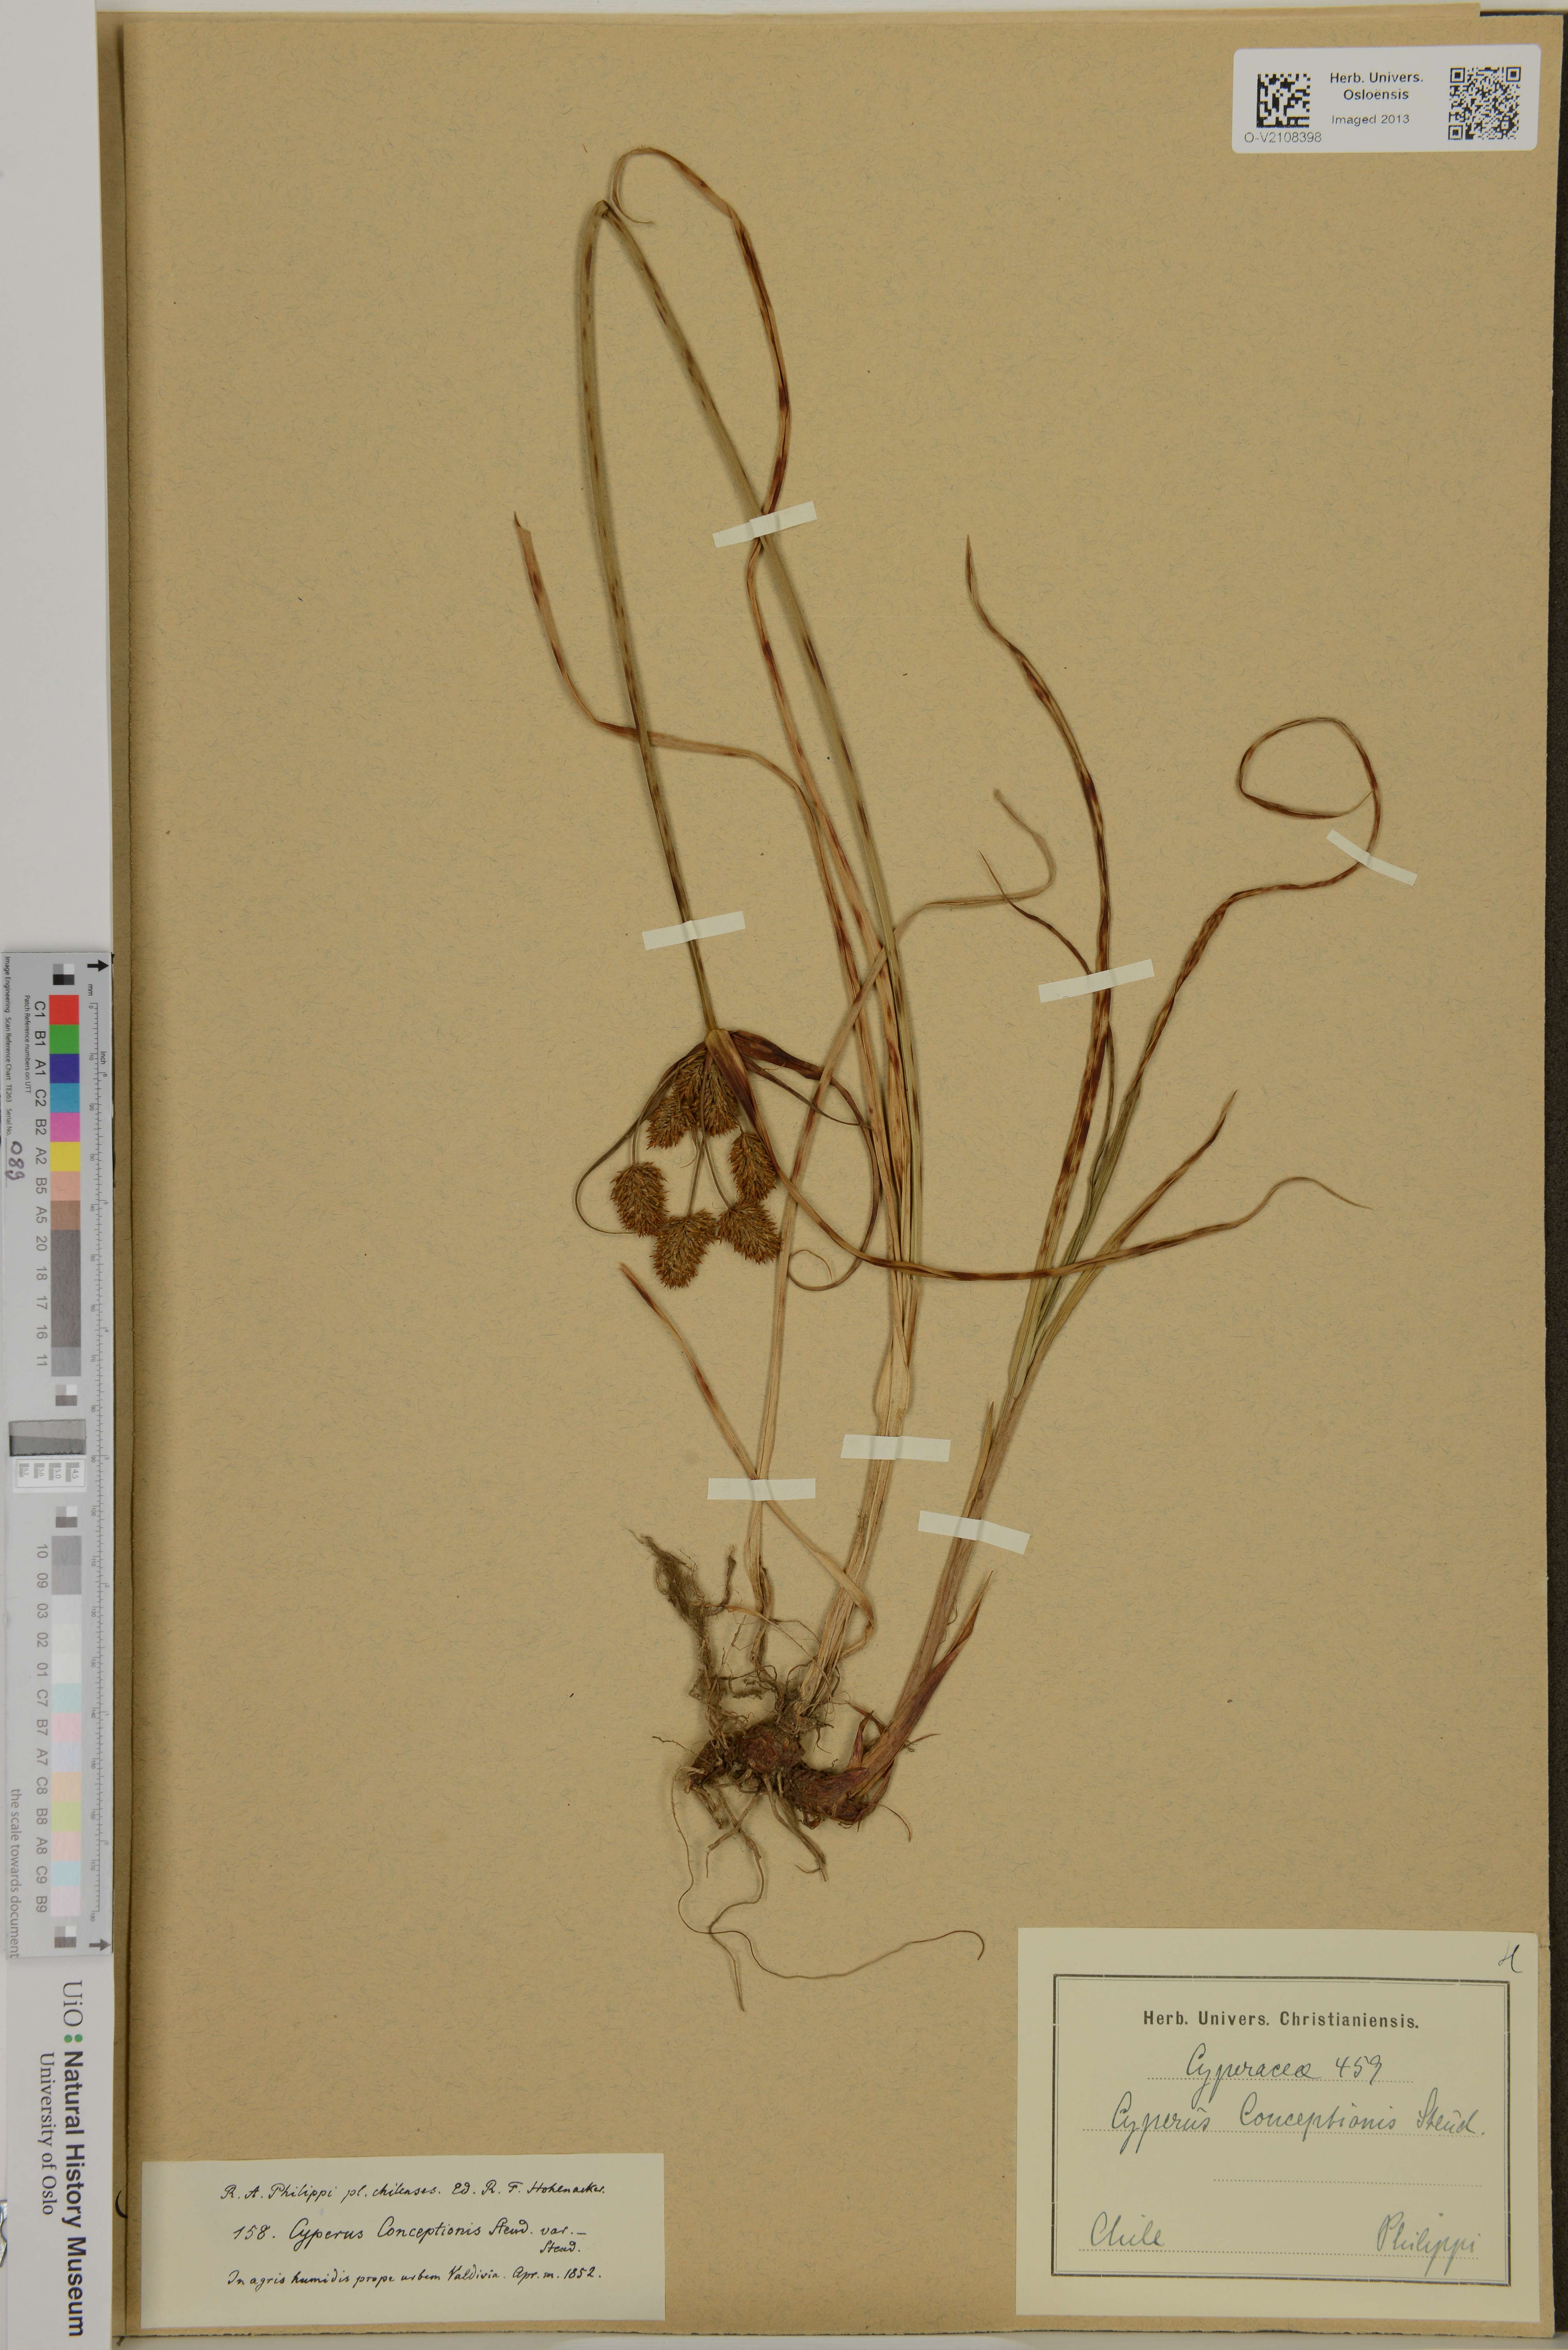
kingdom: Plantae
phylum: Tracheophyta
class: Liliopsida
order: Poales
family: Cyperaceae
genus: Cyperus
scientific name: Cyperus rigens
